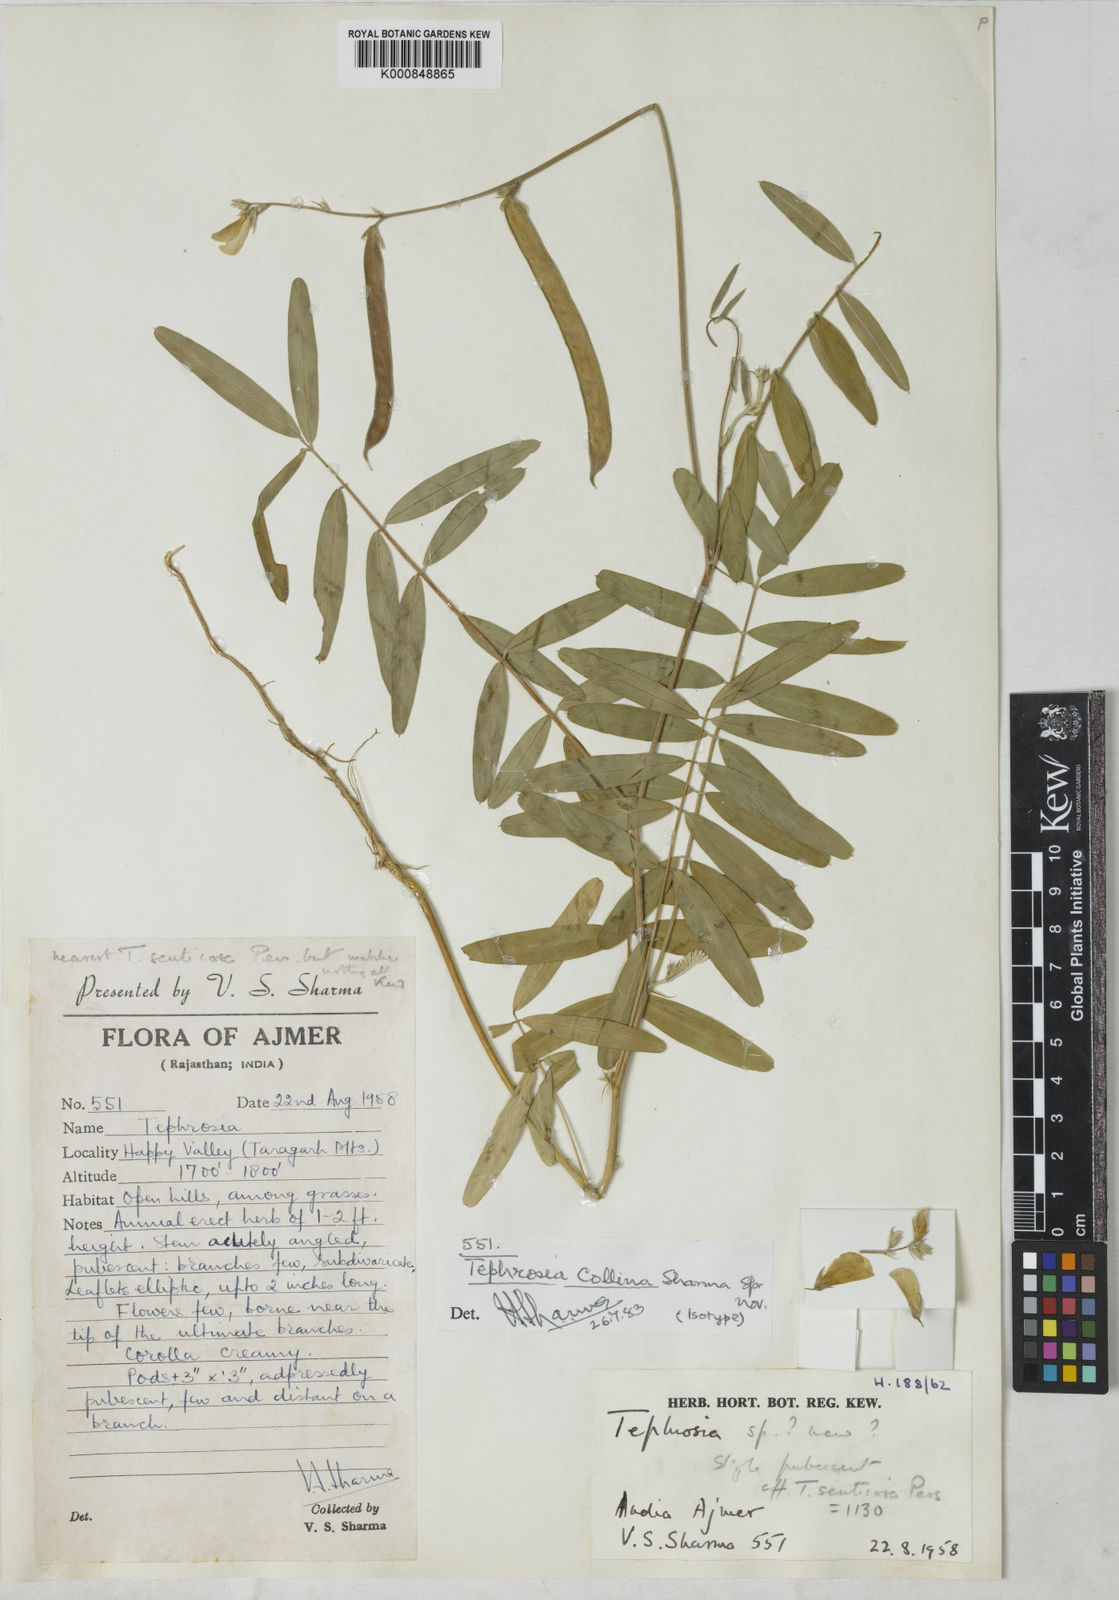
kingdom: Plantae
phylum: Tracheophyta
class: Magnoliopsida
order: Fabales
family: Fabaceae
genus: Tephrosia
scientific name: Tephrosia collina
